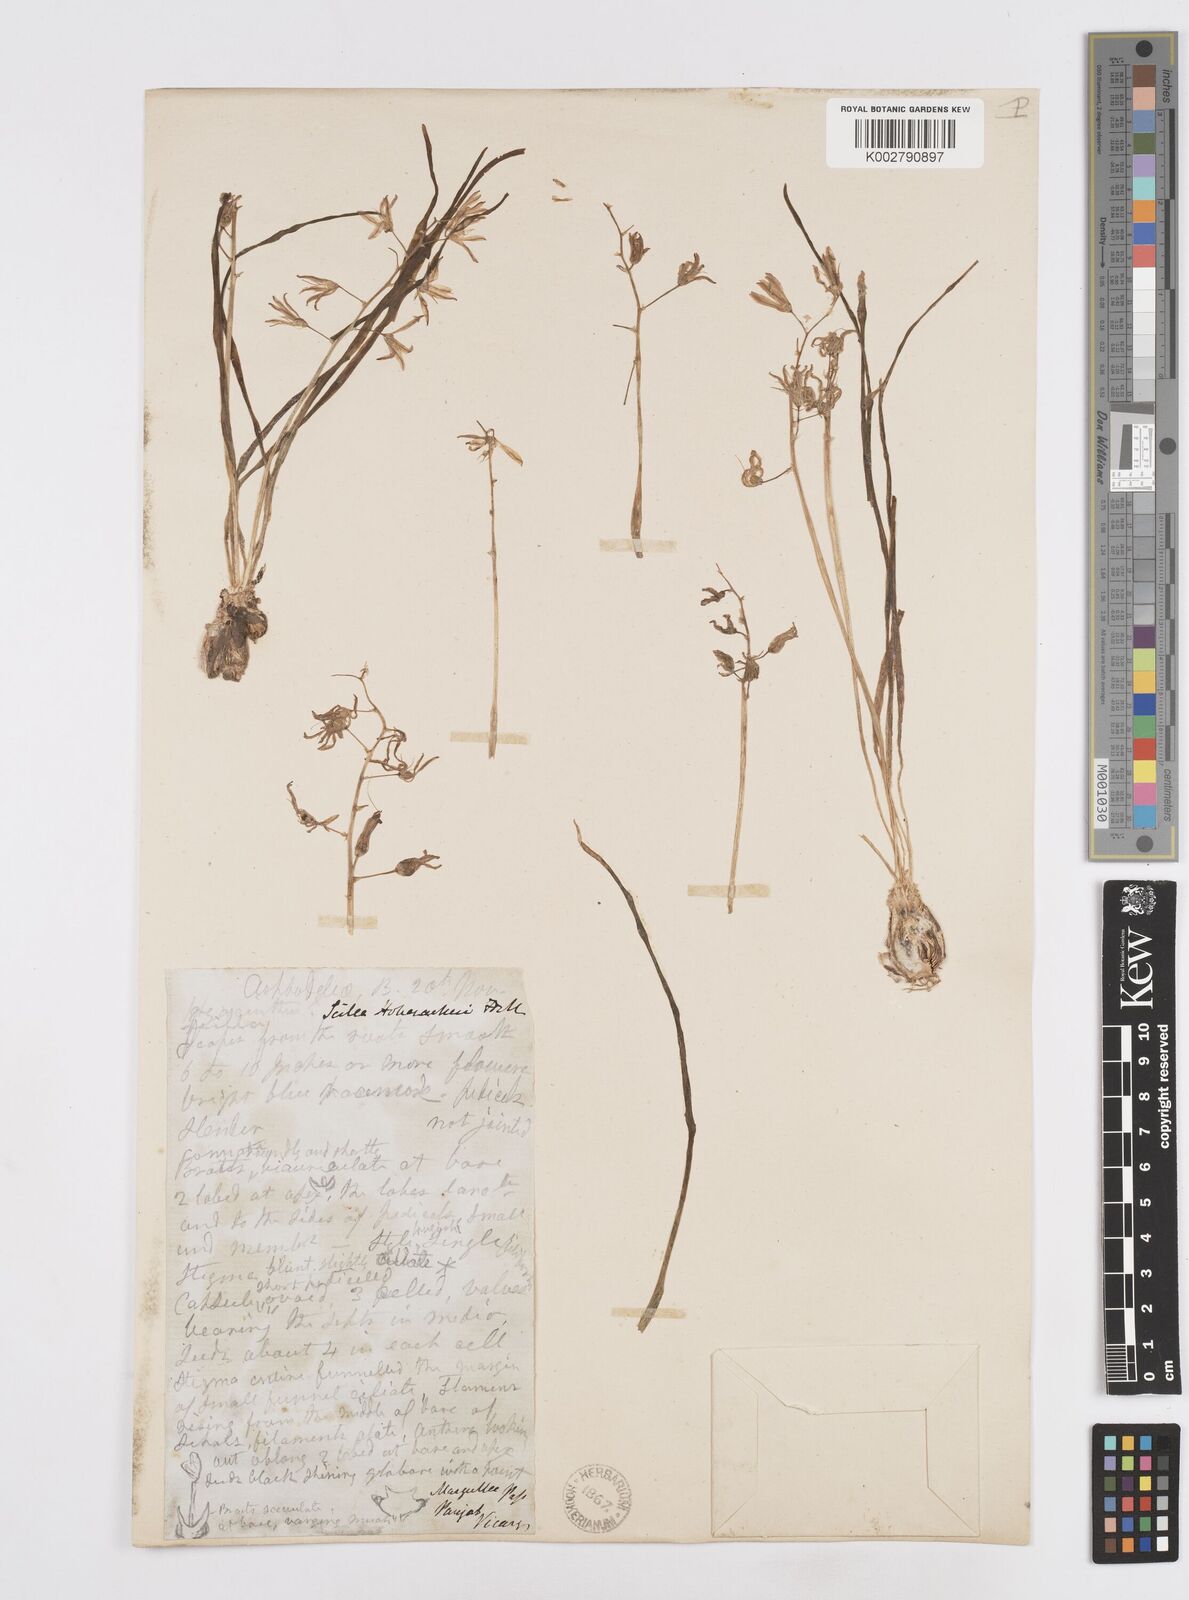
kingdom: Plantae
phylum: Tracheophyta
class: Liliopsida
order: Asparagales
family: Asparagaceae
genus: Fessia
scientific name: Fessia purpurea
